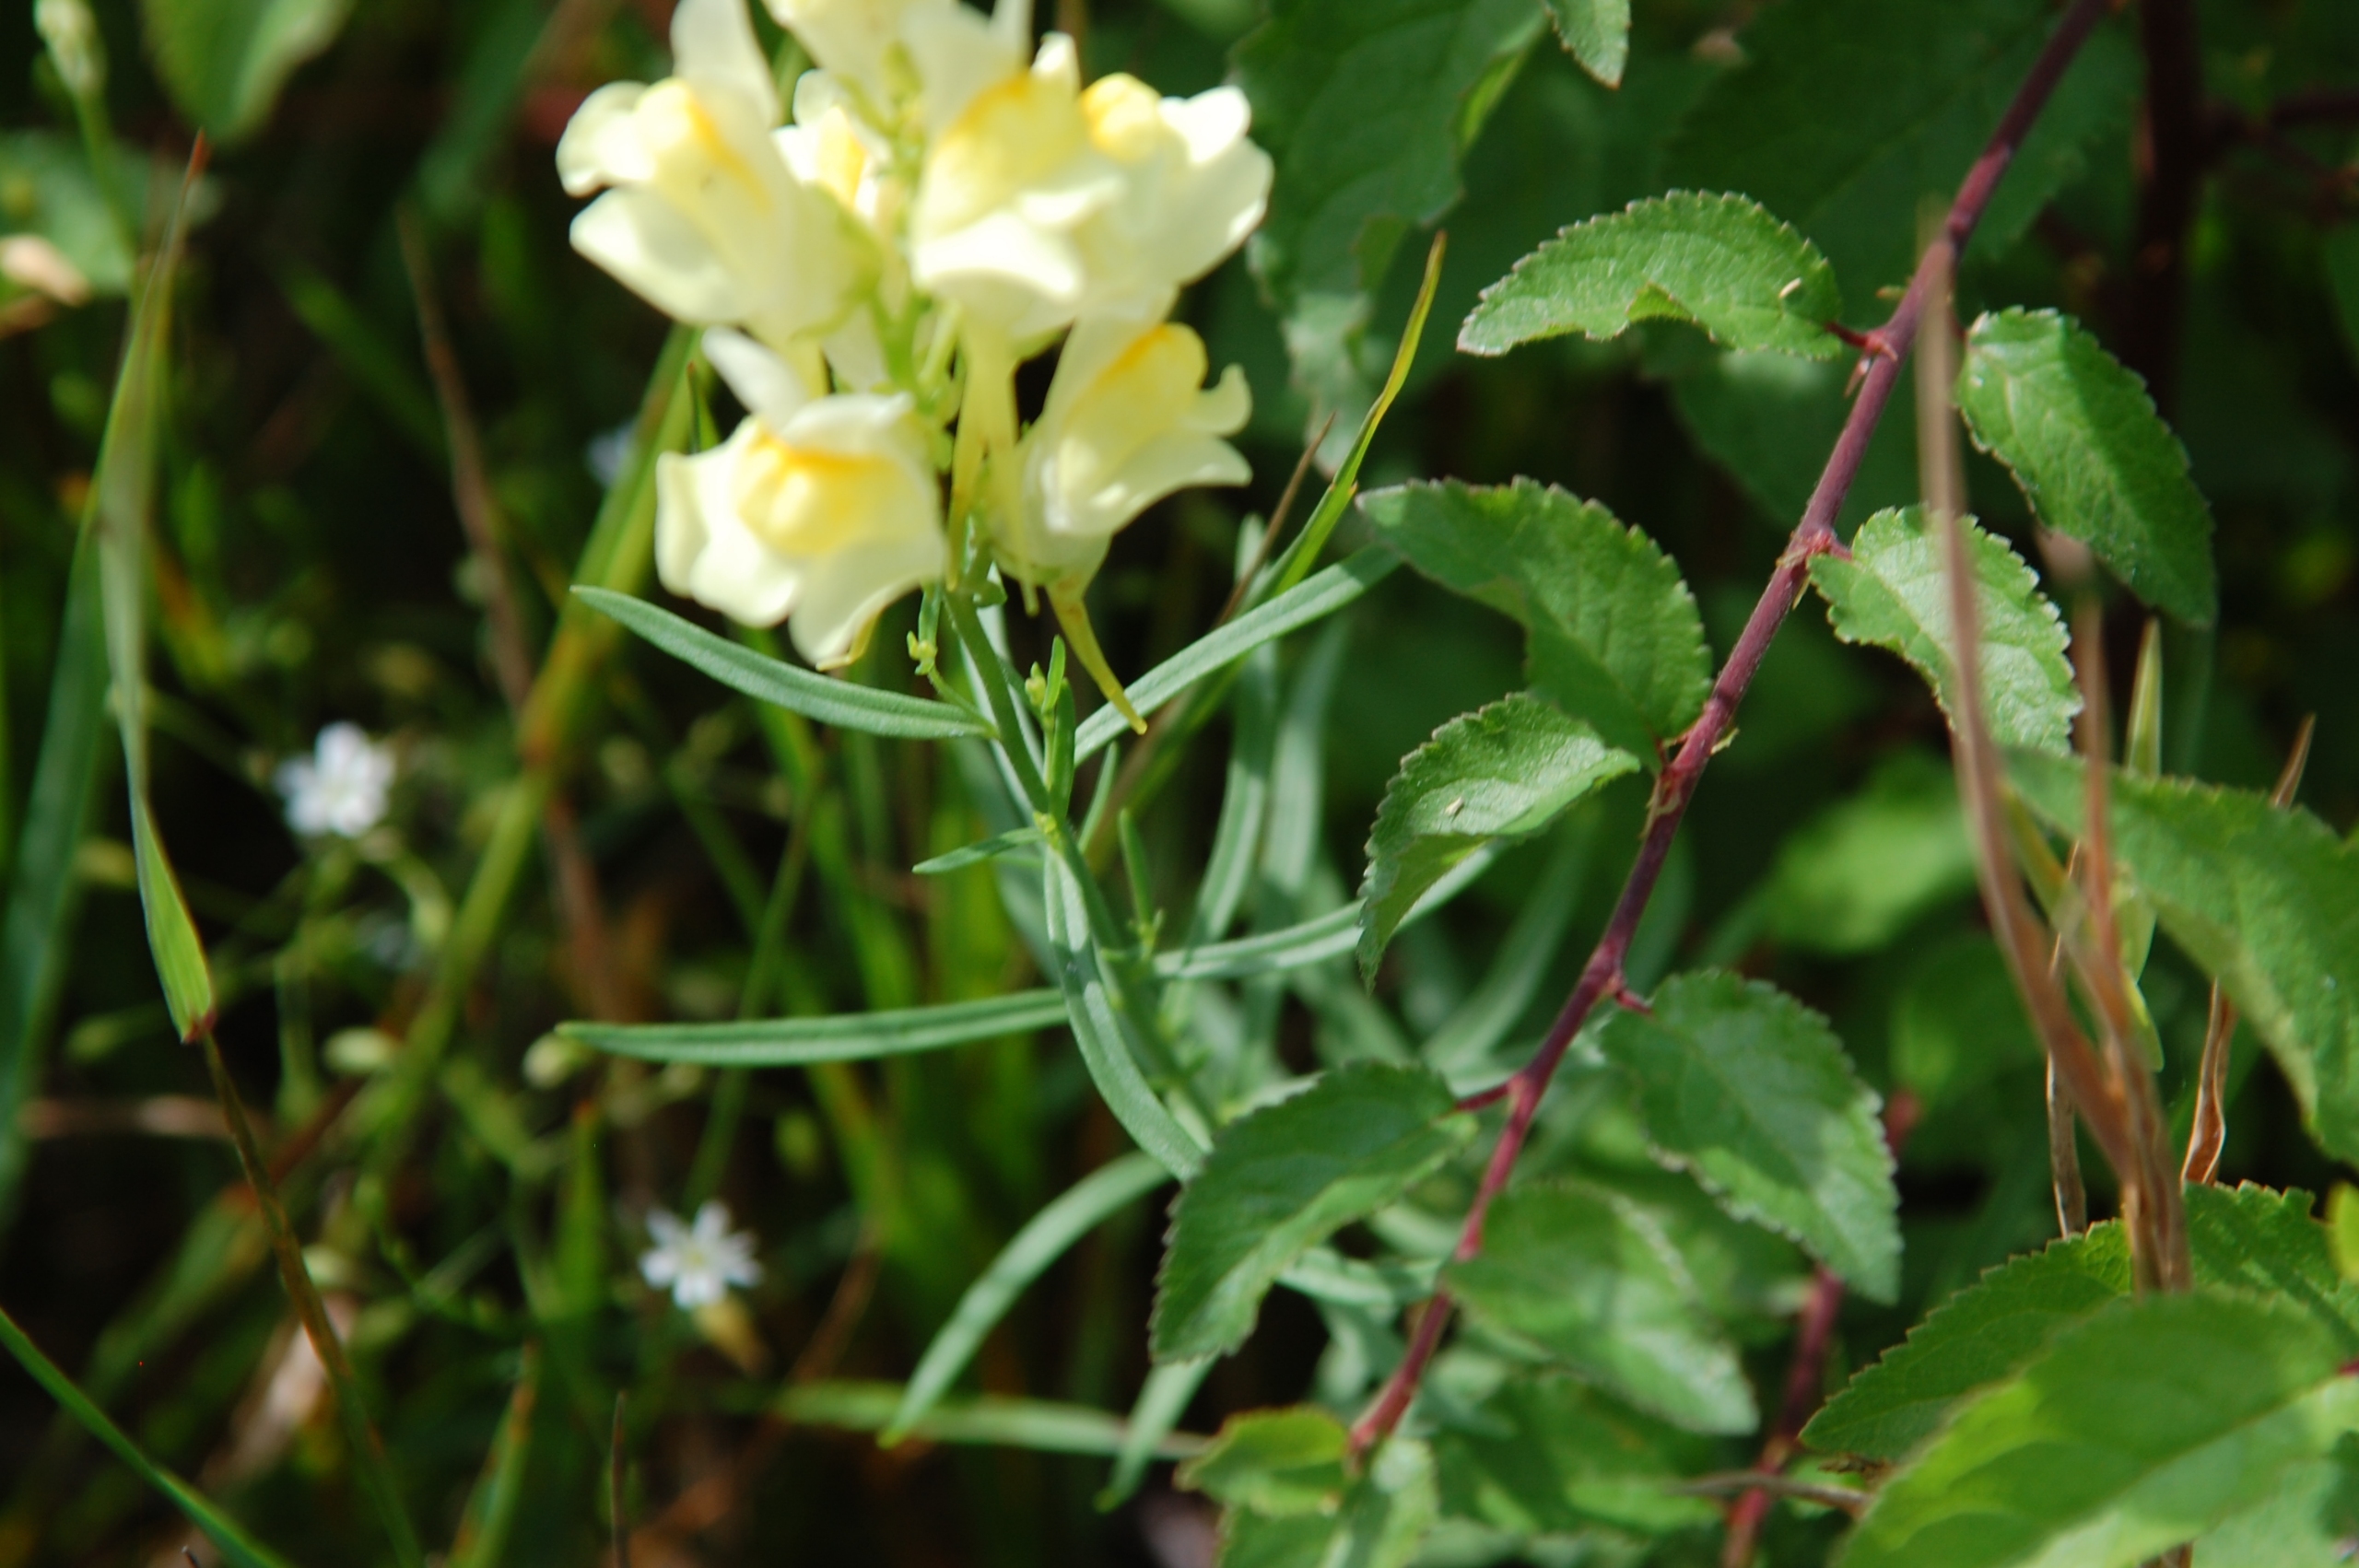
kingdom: Plantae
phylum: Tracheophyta
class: Magnoliopsida
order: Lamiales
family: Plantaginaceae
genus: Linaria
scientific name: Linaria vulgaris
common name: Almindelig torskemund
